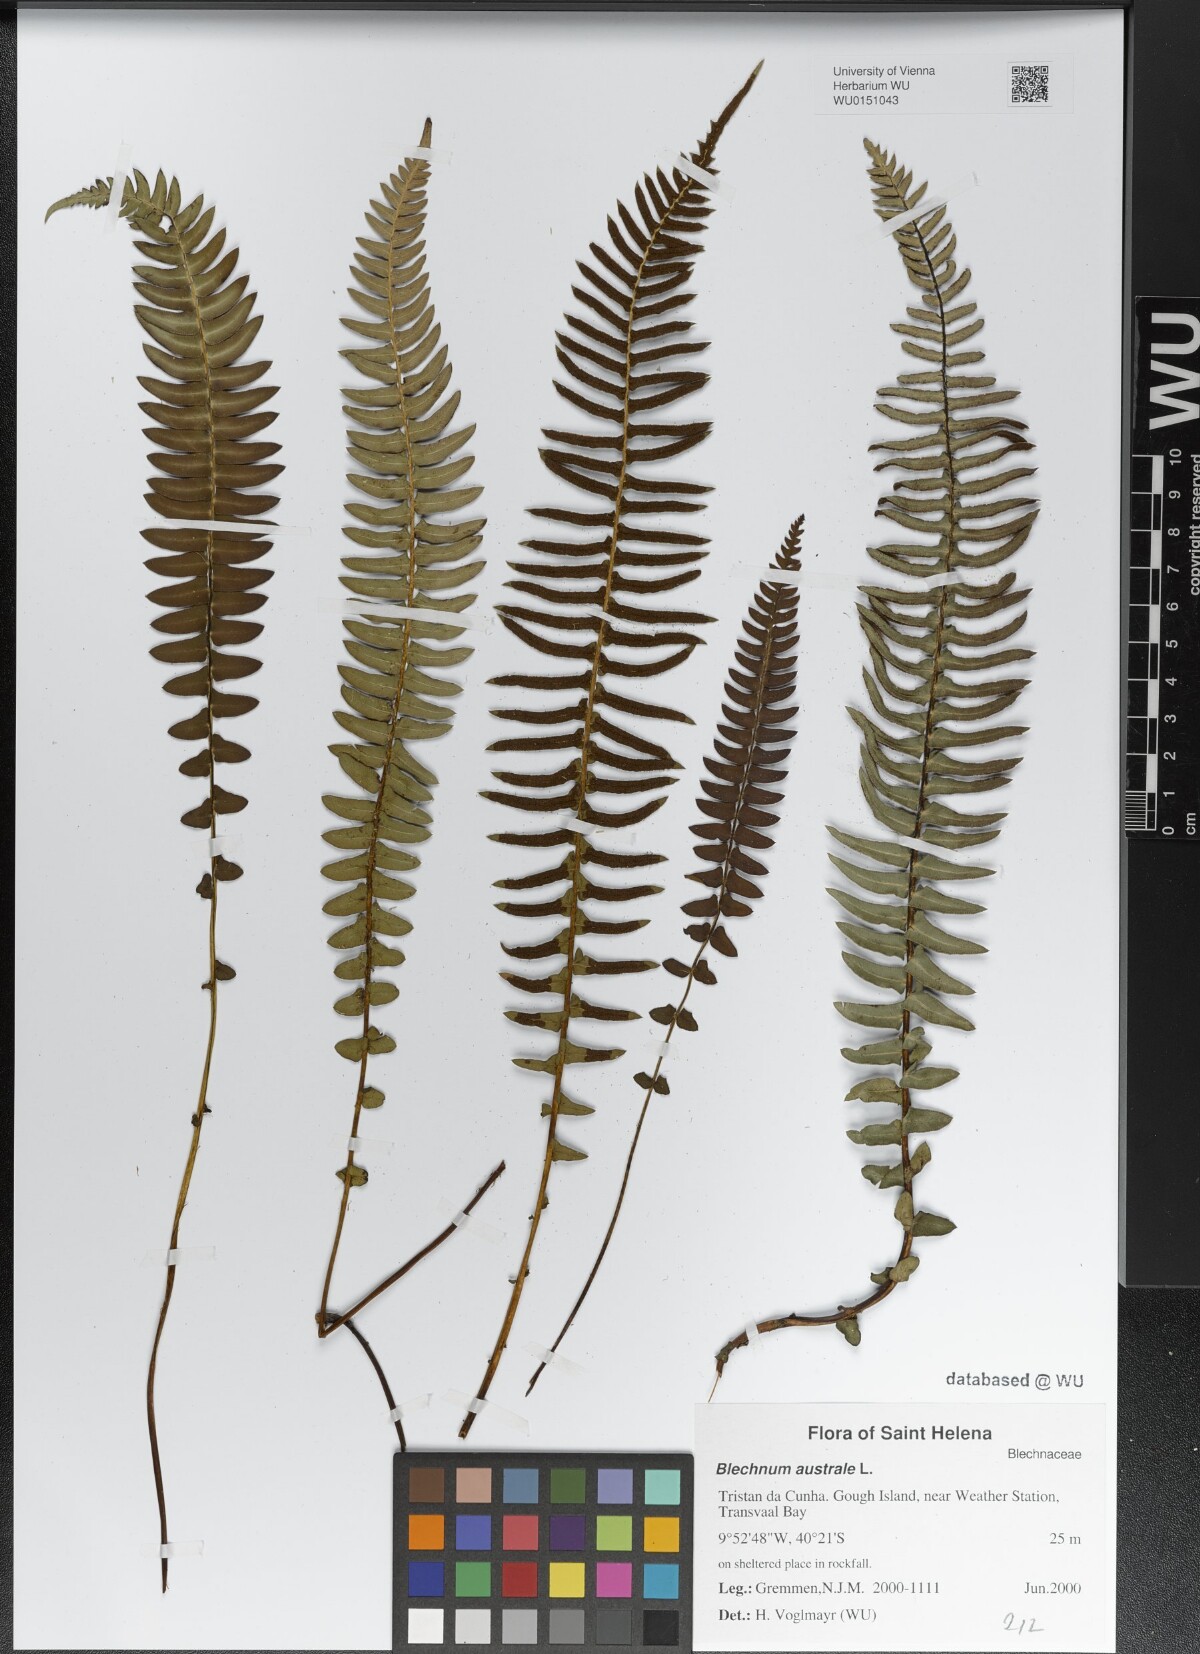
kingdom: Plantae
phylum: Tracheophyta
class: Polypodiopsida
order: Polypodiales
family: Blechnaceae
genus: Blechnum
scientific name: Blechnum australe
